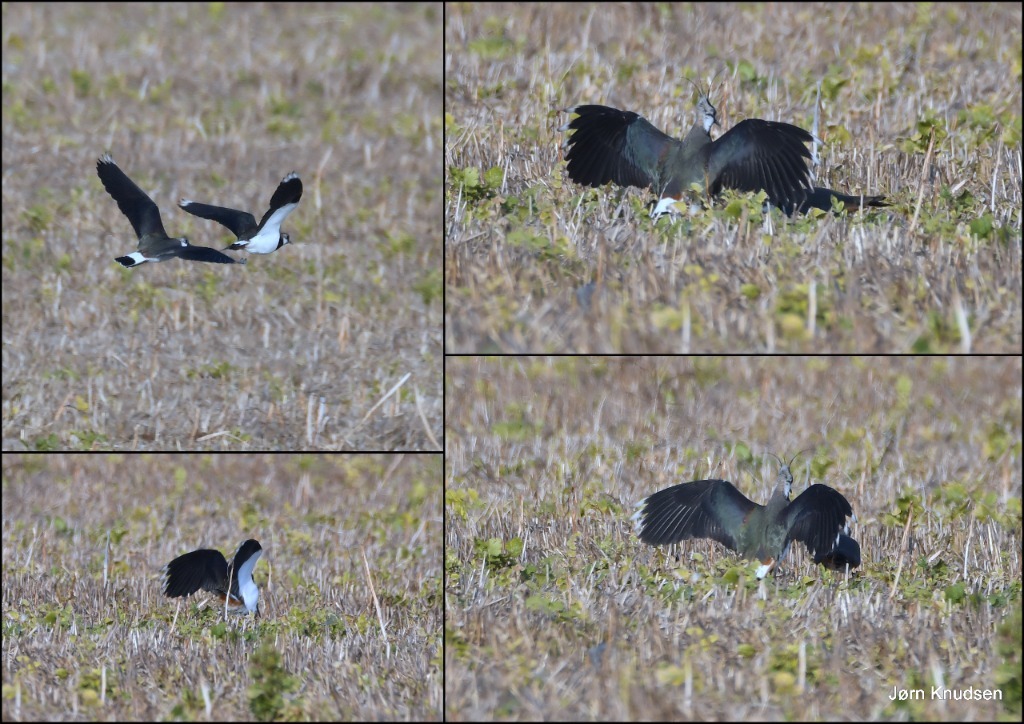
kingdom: Animalia
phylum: Chordata
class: Aves
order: Charadriiformes
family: Charadriidae
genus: Vanellus
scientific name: Vanellus vanellus
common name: Vibe
